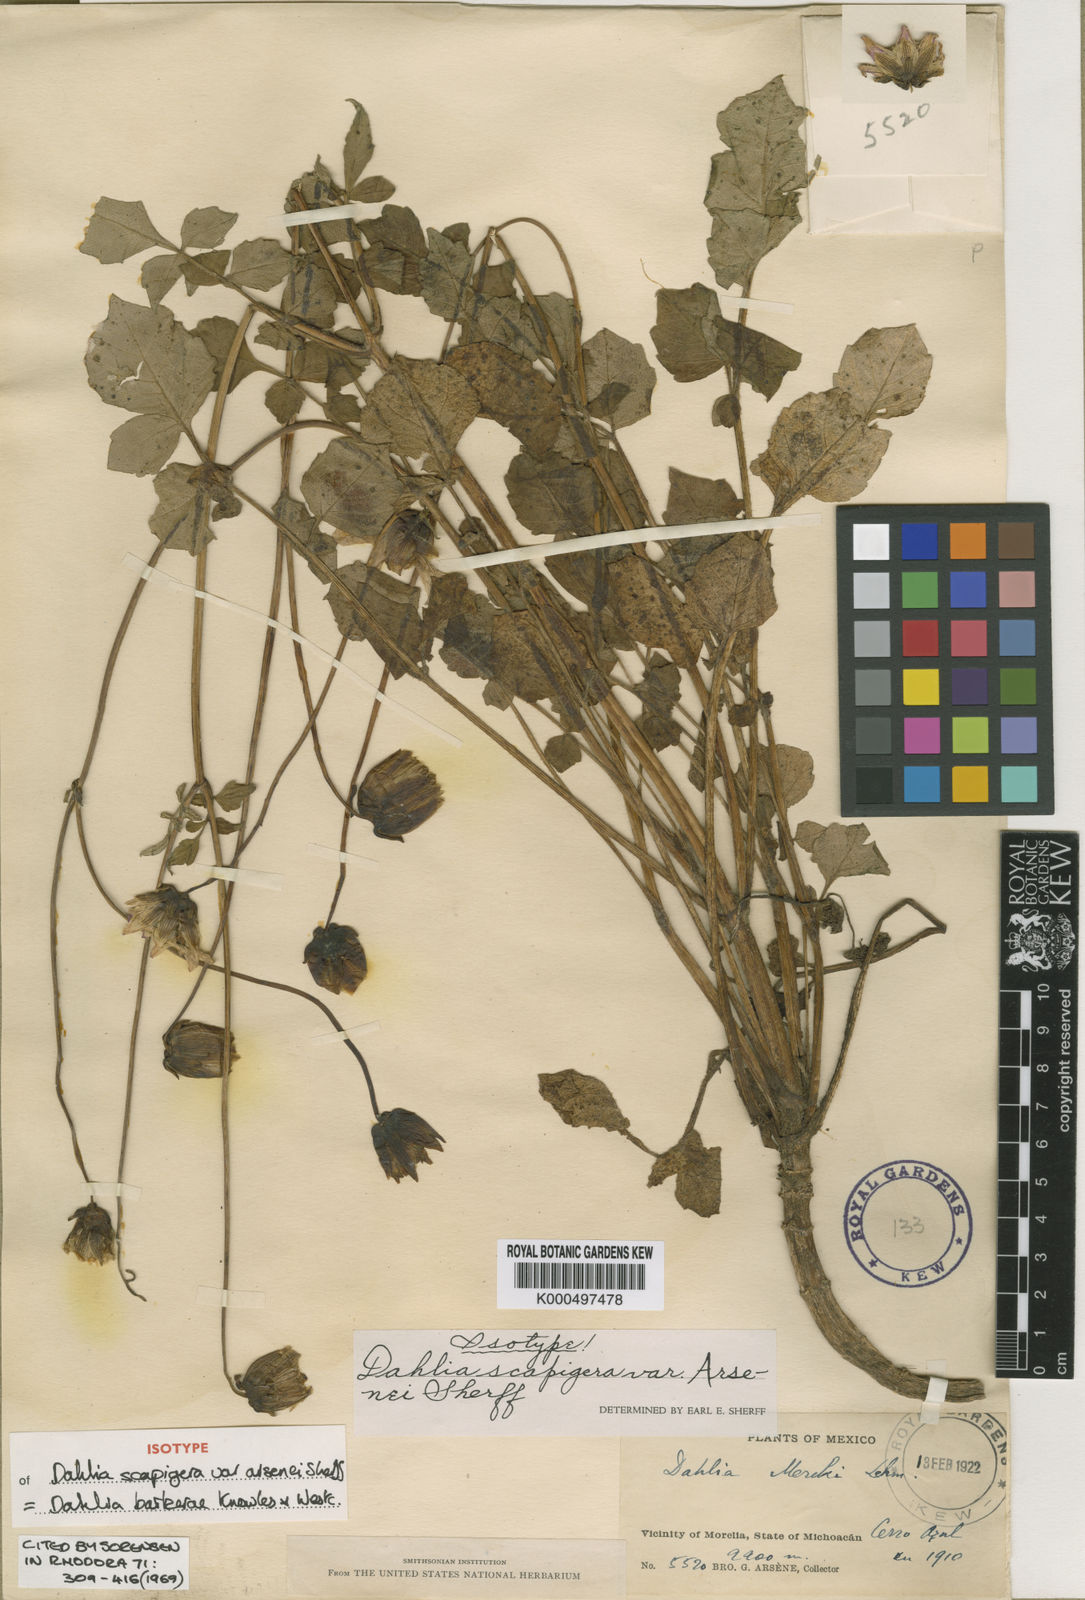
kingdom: Plantae
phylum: Tracheophyta
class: Magnoliopsida
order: Asterales
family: Asteraceae
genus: Dahlia
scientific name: Dahlia australis
